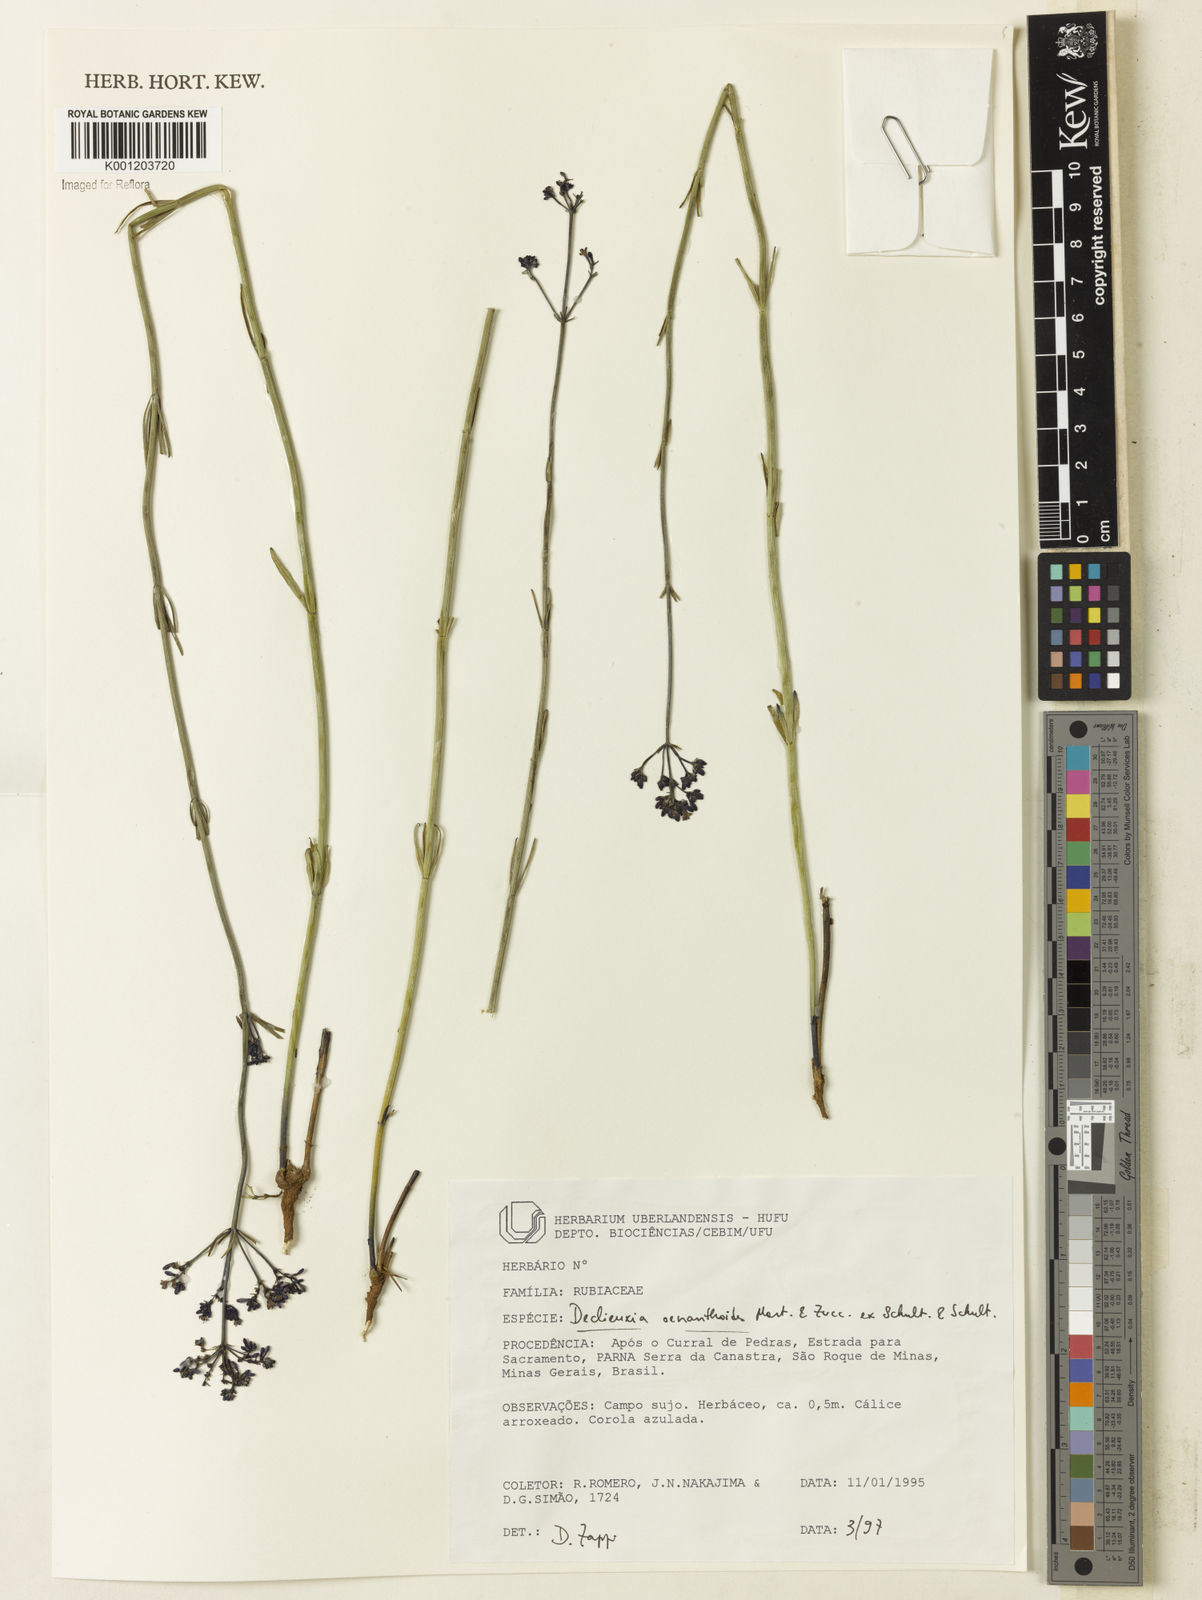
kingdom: Plantae
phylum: Tracheophyta
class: Magnoliopsida
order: Gentianales
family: Rubiaceae
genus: Declieuxia
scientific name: Declieuxia
